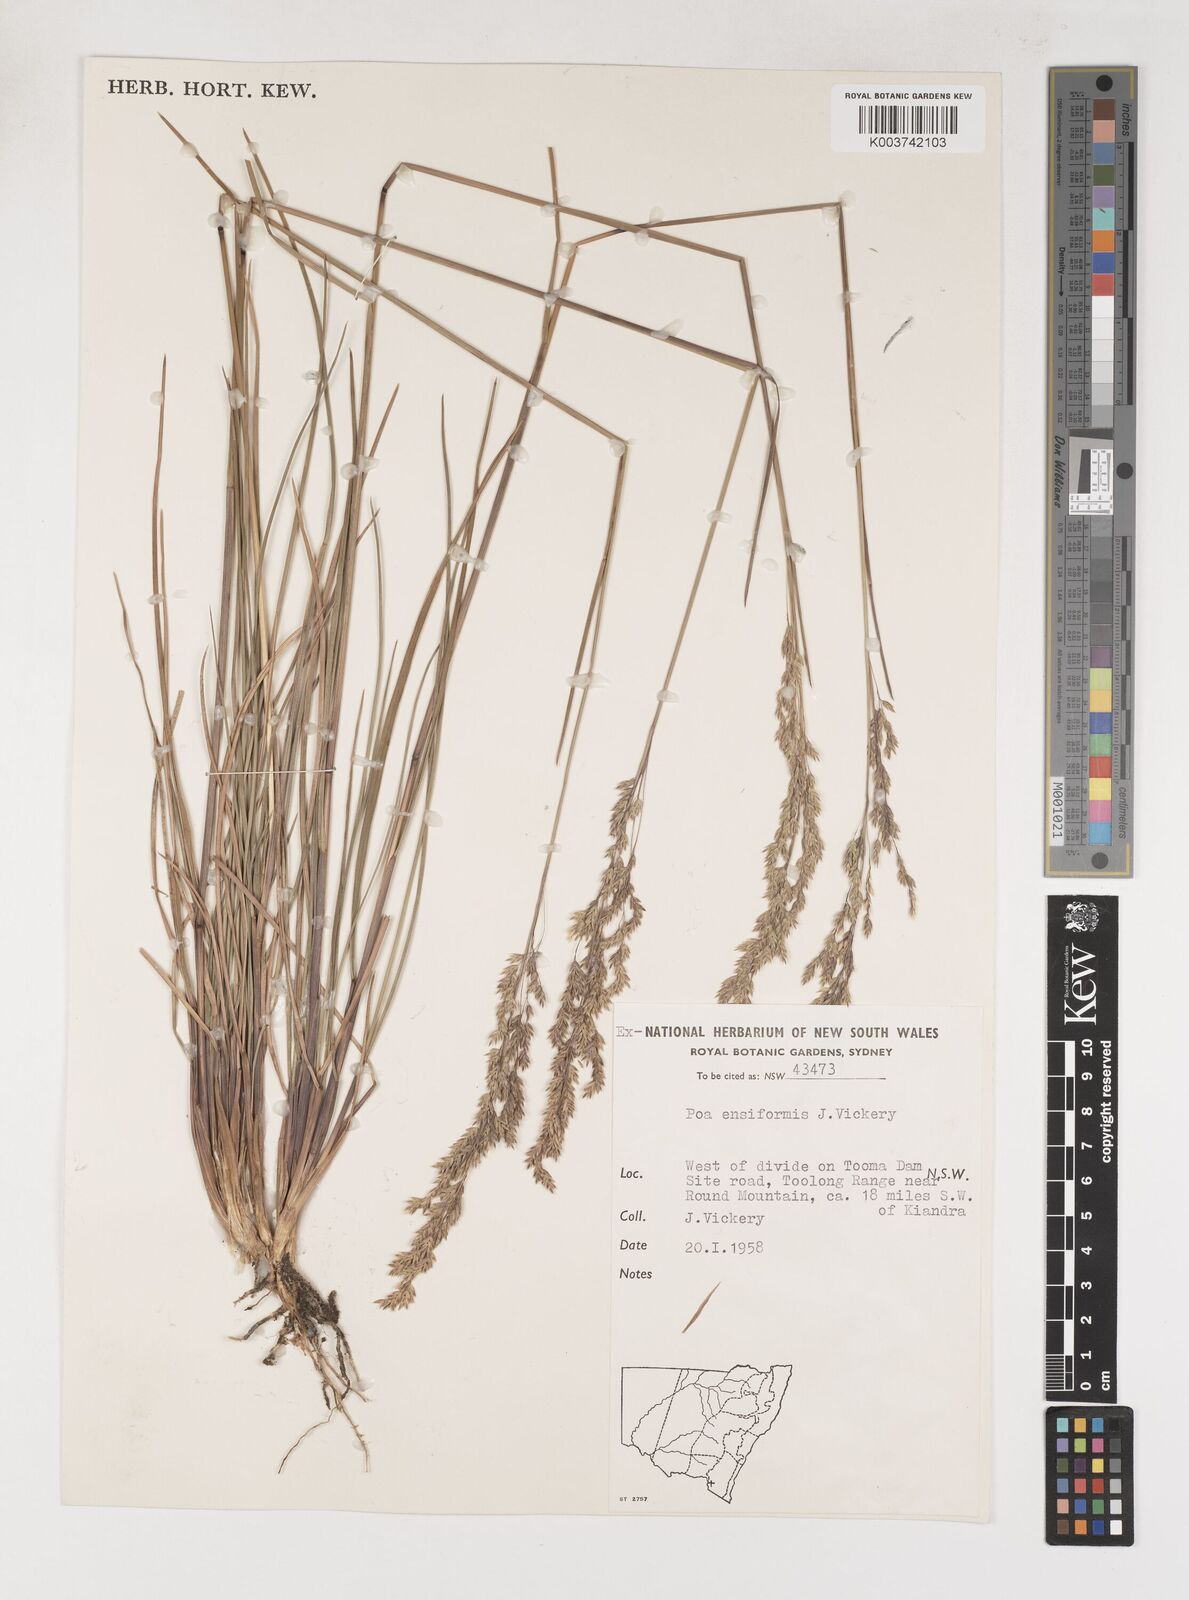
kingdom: Plantae
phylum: Tracheophyta
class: Liliopsida
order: Poales
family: Poaceae
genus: Poa
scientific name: Poa ensiformis
